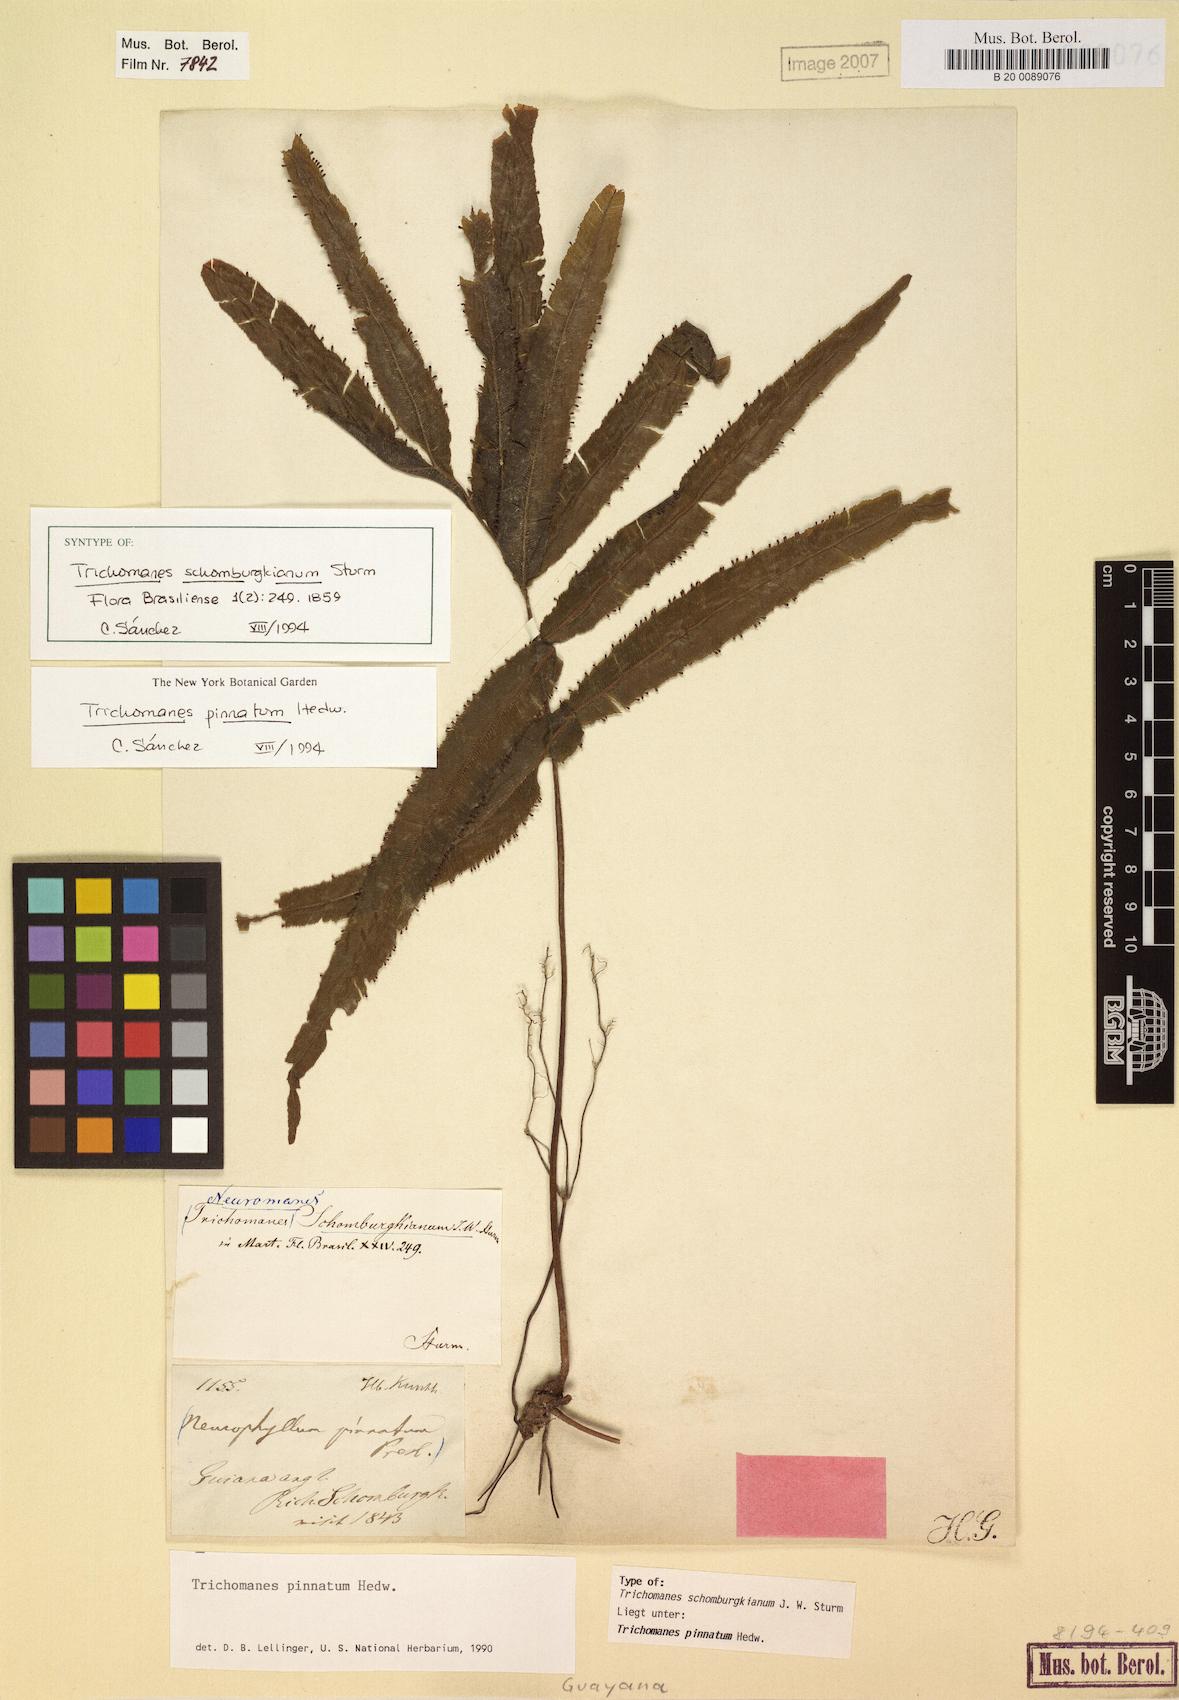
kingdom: Plantae
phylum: Tracheophyta
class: Polypodiopsida
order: Hymenophyllales
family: Hymenophyllaceae
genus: Trichomanes
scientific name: Trichomanes pinnatum
